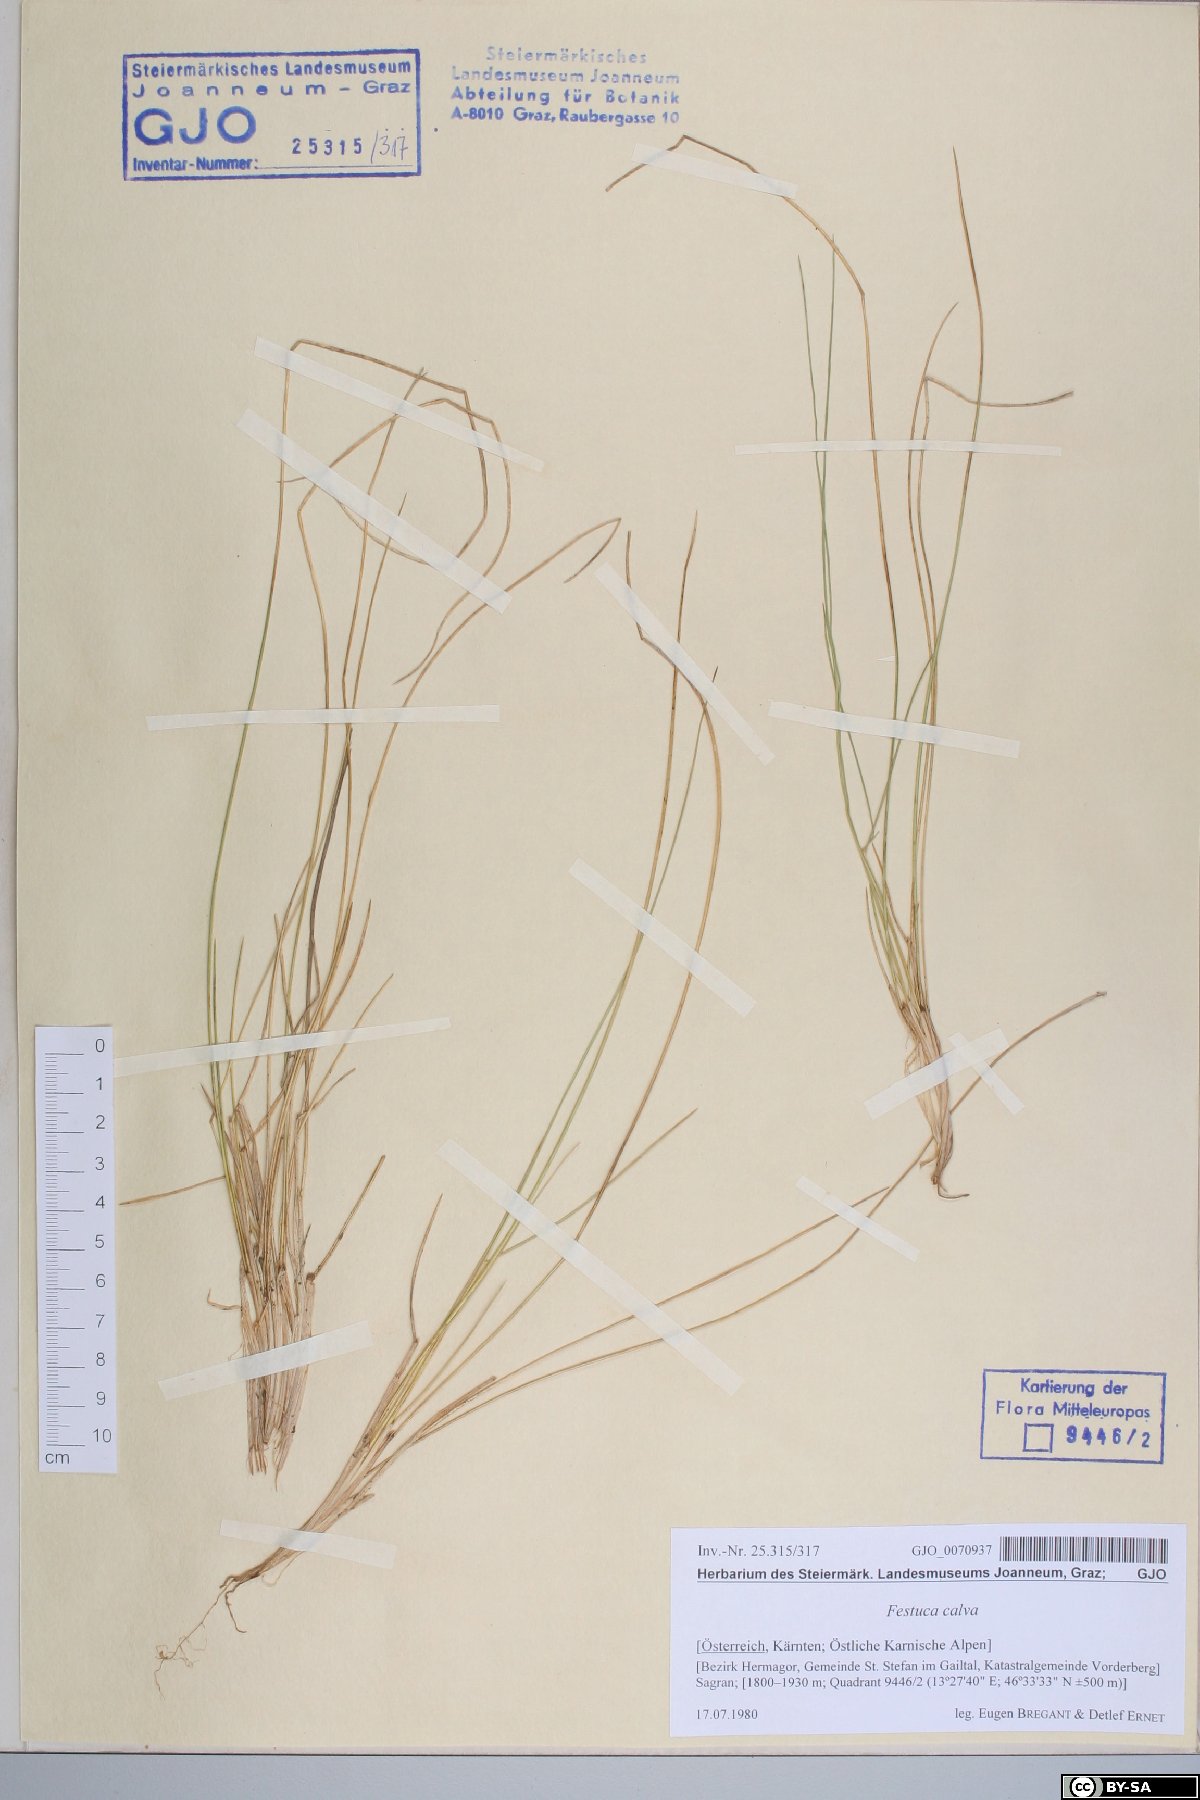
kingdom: Plantae
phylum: Tracheophyta
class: Liliopsida
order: Poales
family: Poaceae
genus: Festuca
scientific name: Festuca calva
